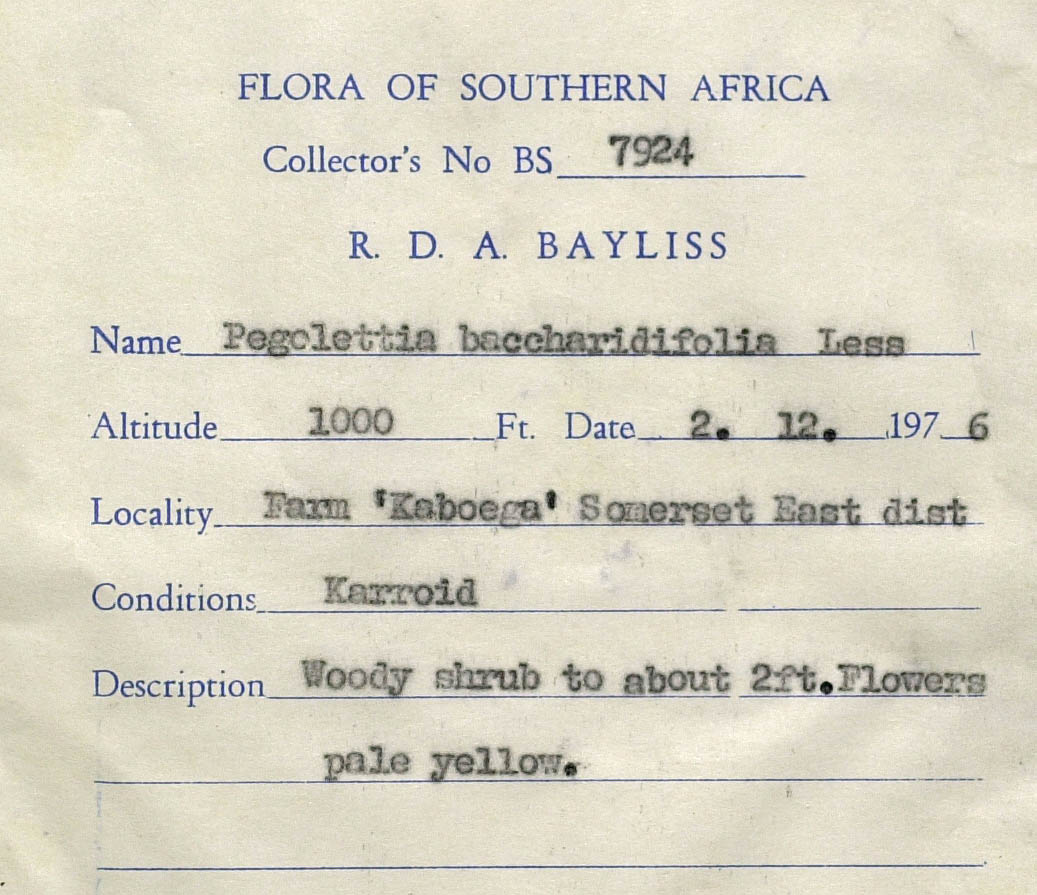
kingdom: Plantae
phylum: Tracheophyta
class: Magnoliopsida
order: Asterales
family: Asteraceae
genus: Pegolettia
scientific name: Pegolettia baccaridifolia
